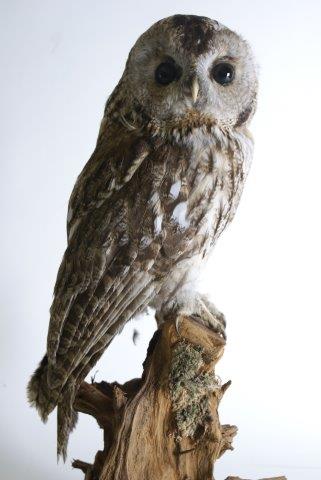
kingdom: Animalia
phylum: Chordata
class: Aves
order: Strigiformes
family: Strigidae
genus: Strix
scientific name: Strix aluco
